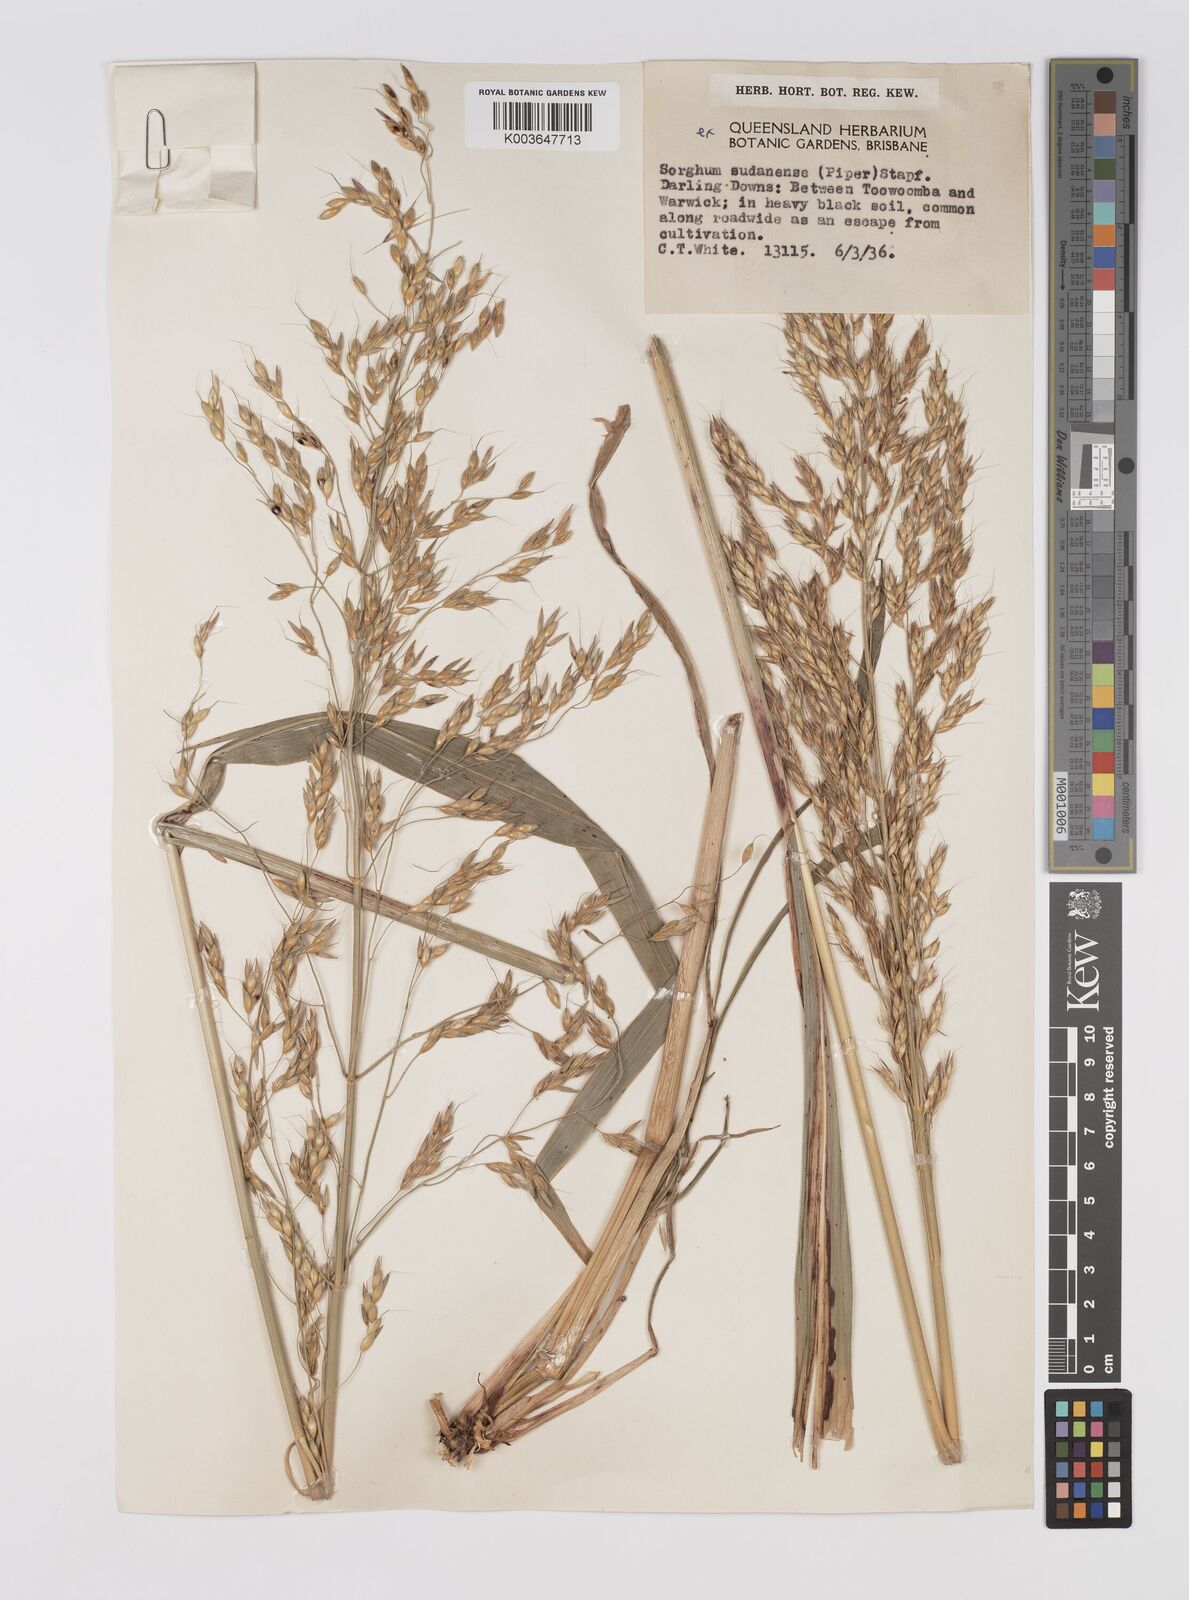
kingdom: Plantae
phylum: Tracheophyta
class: Liliopsida
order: Poales
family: Poaceae
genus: Sorghum
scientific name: Sorghum drummondii
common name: Sudangrass
